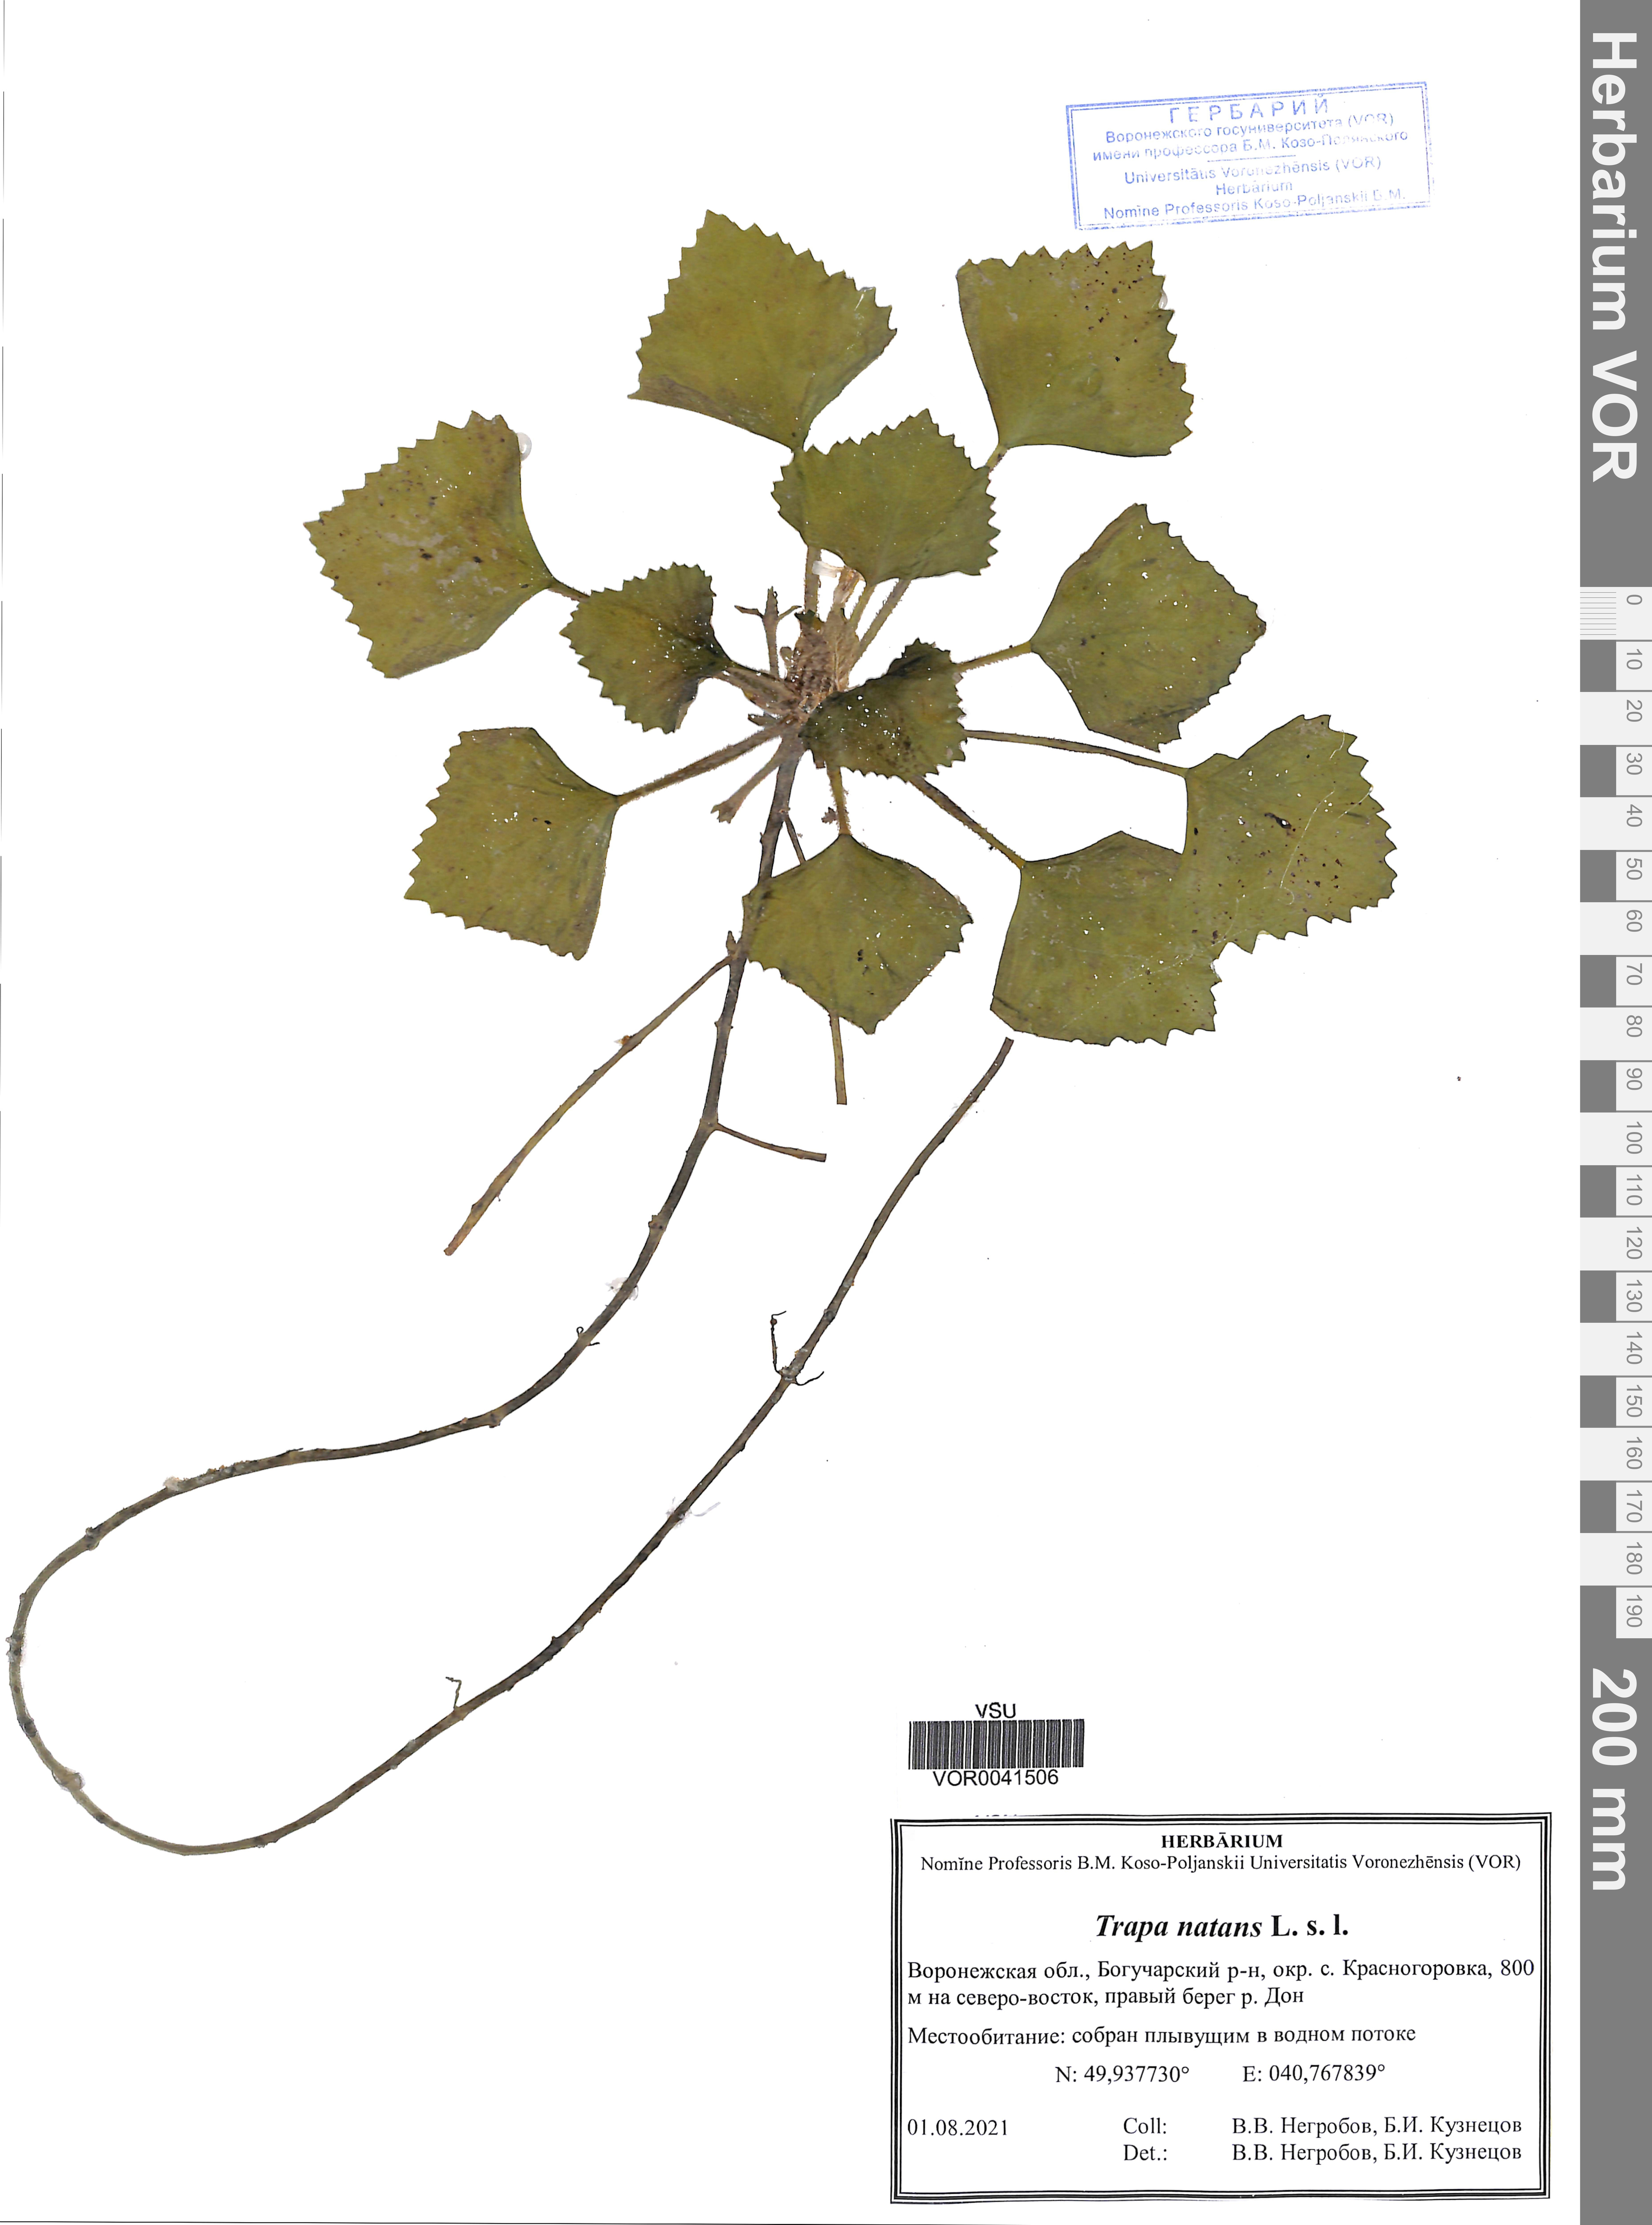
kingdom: Plantae
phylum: Tracheophyta
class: Magnoliopsida
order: Myrtales
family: Lythraceae
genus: Trapa
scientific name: Trapa natans
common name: Water chestnut
